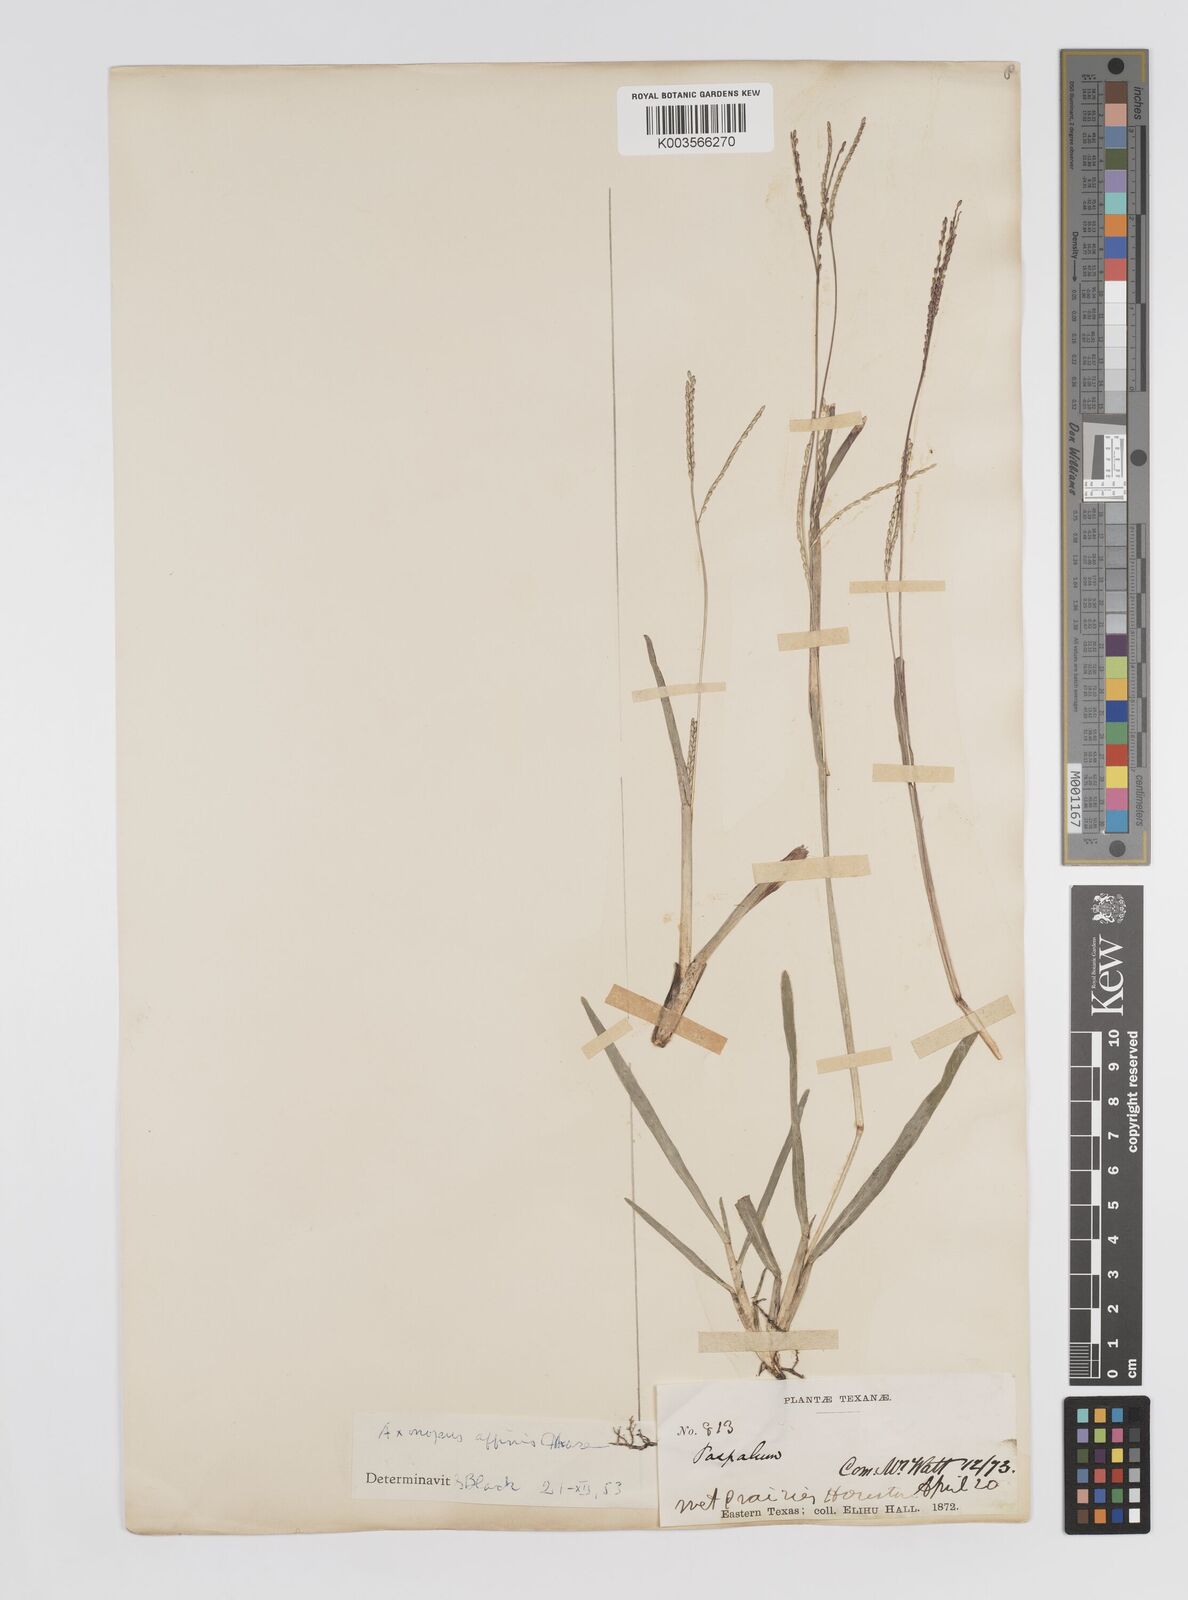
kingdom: Plantae
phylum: Tracheophyta
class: Liliopsida
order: Poales
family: Poaceae
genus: Axonopus
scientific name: Axonopus fissifolius
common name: Common carpetgrass
